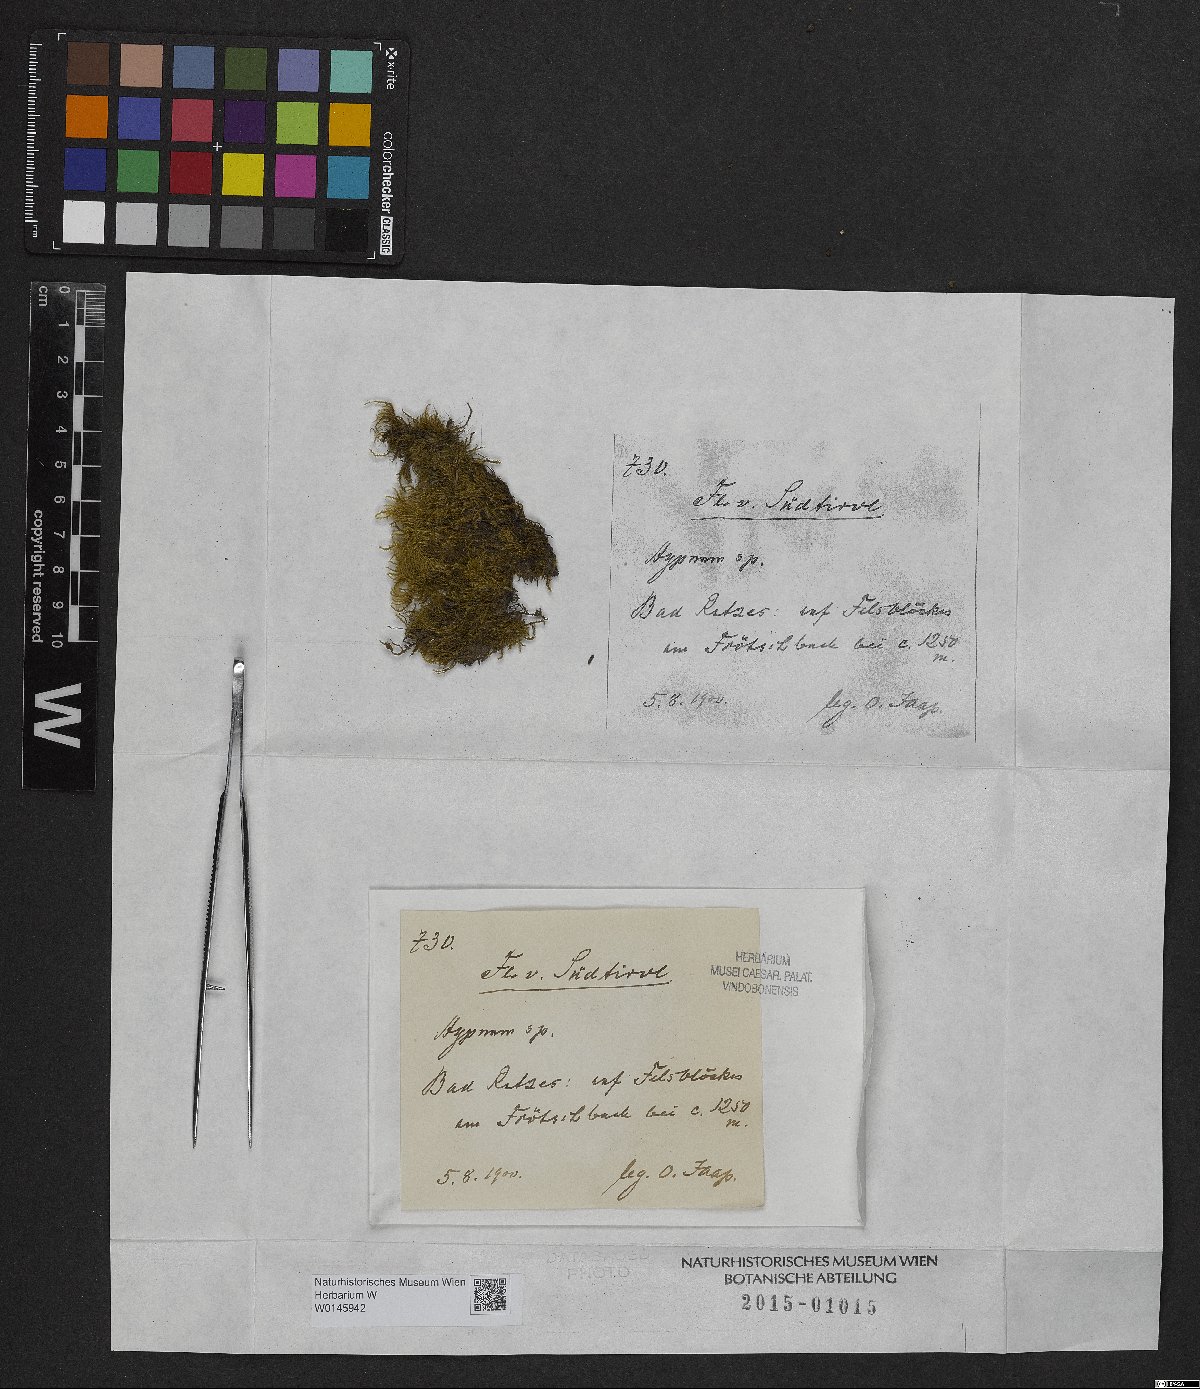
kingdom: Plantae
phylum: Bryophyta
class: Bryopsida
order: Hypnales
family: Hypnaceae
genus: Hypnum
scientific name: Hypnum
